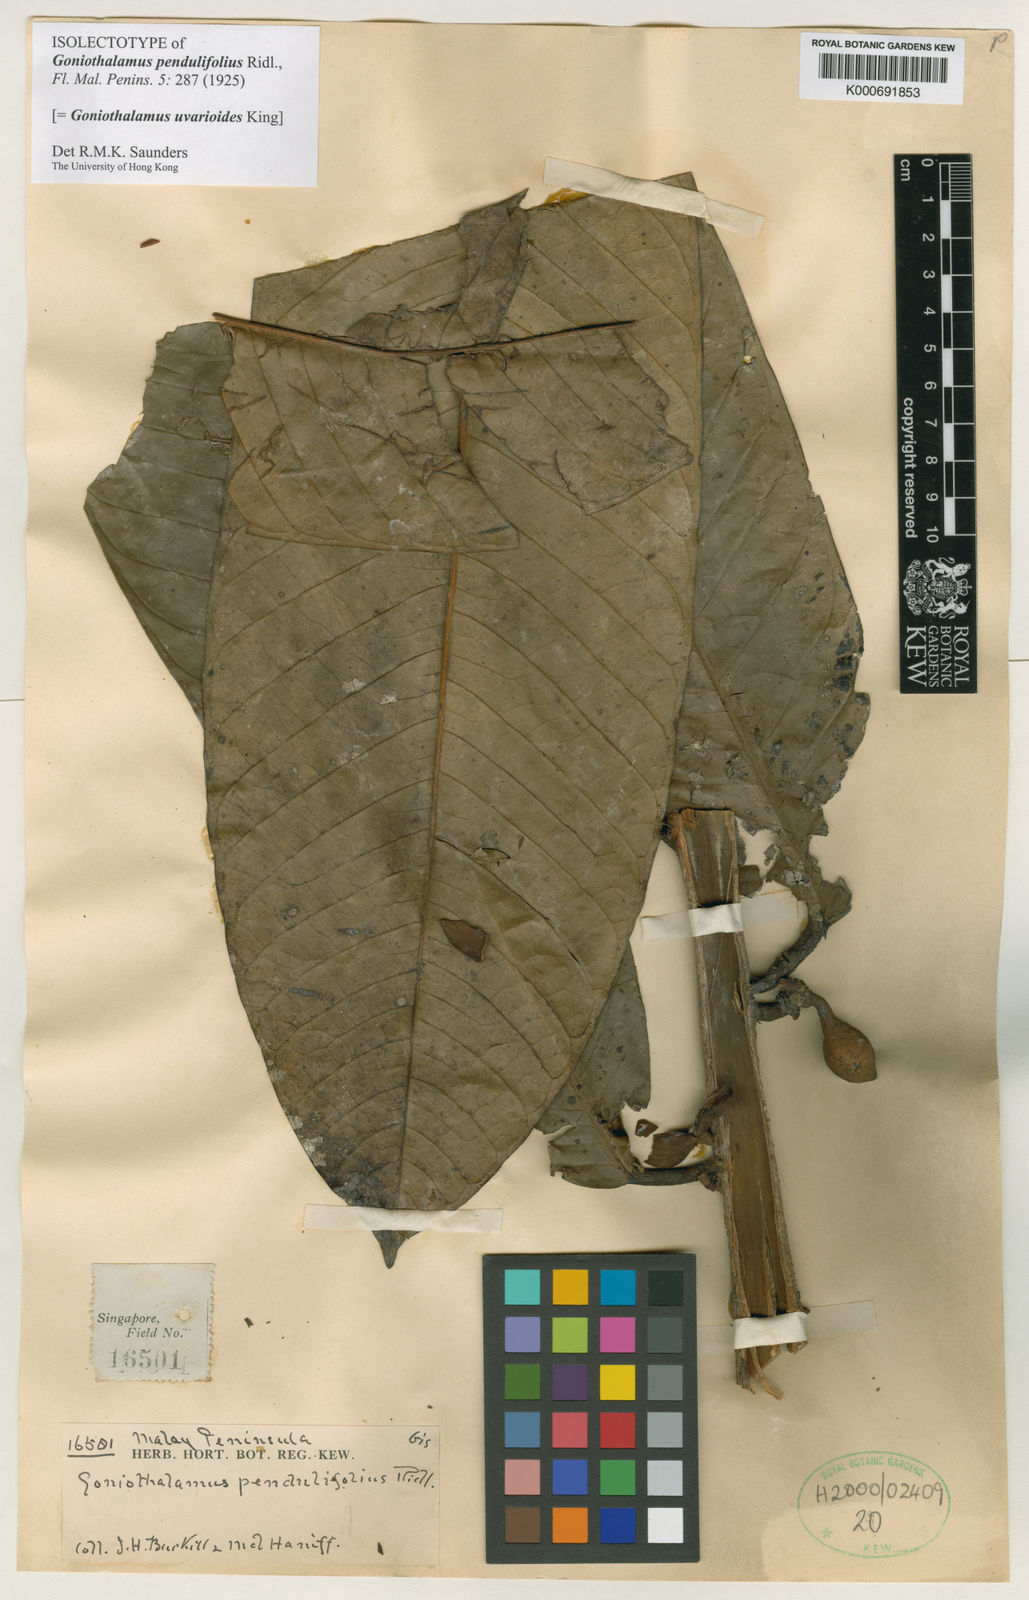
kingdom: Plantae
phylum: Tracheophyta
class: Magnoliopsida
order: Magnoliales
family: Annonaceae
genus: Goniothalamus
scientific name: Goniothalamus uvarioides
